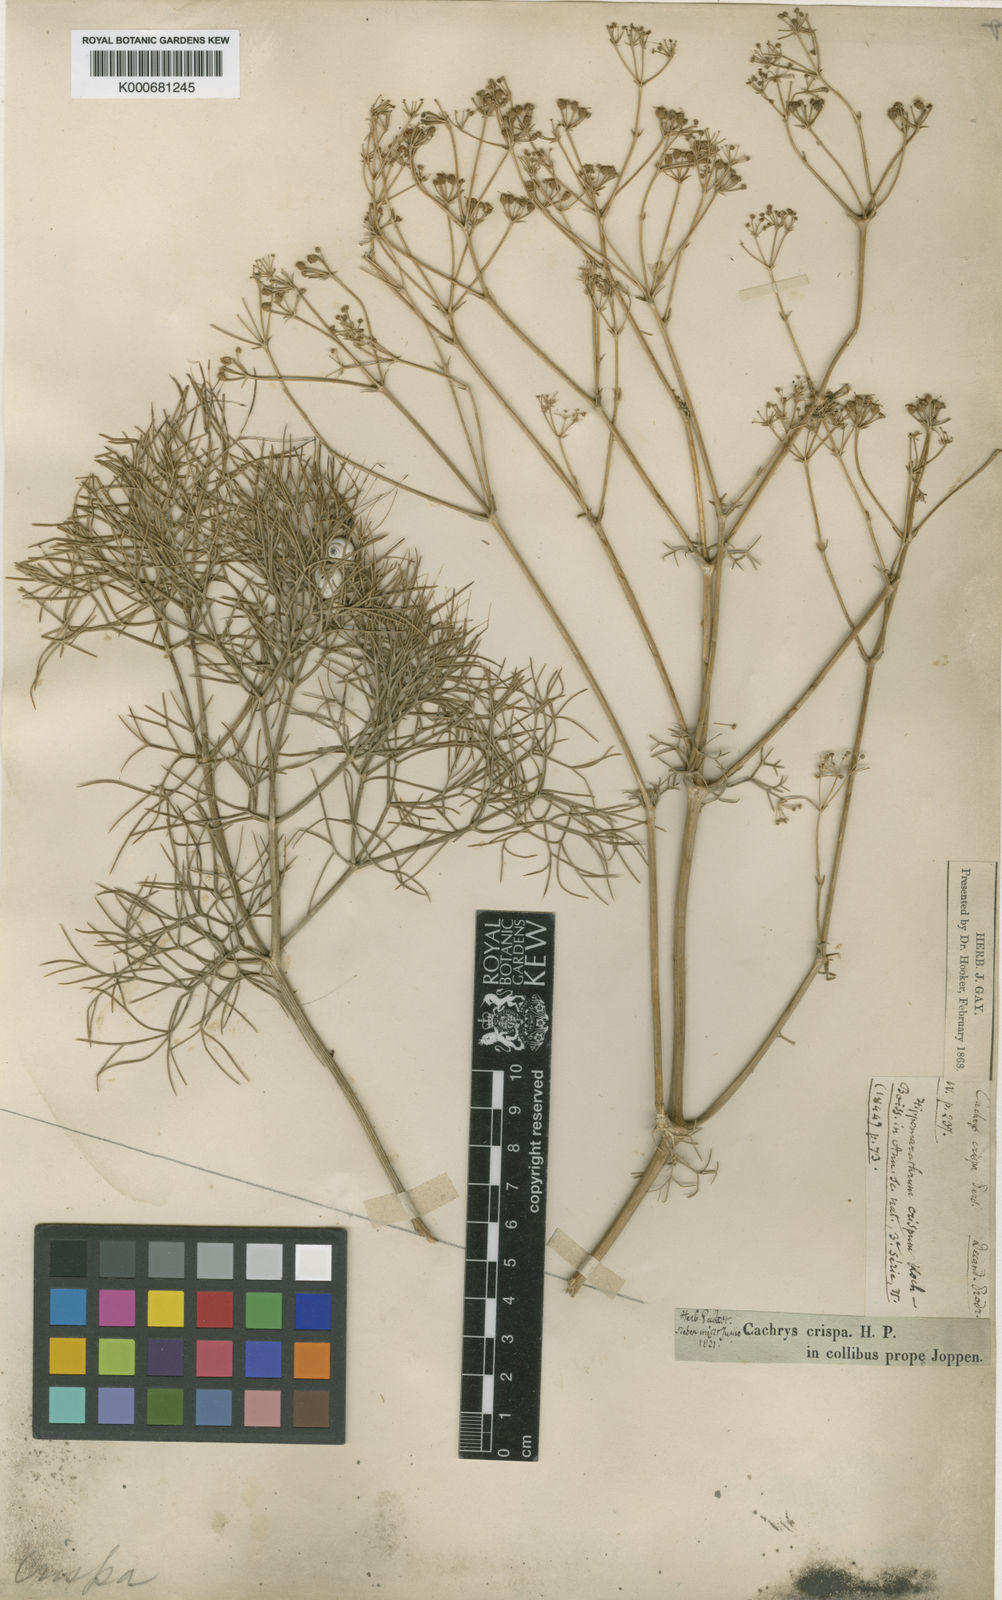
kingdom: Plantae
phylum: Tracheophyta
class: Magnoliopsida
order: Apiales
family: Apiaceae
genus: Bilacunaria
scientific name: Bilacunaria microcarpa
